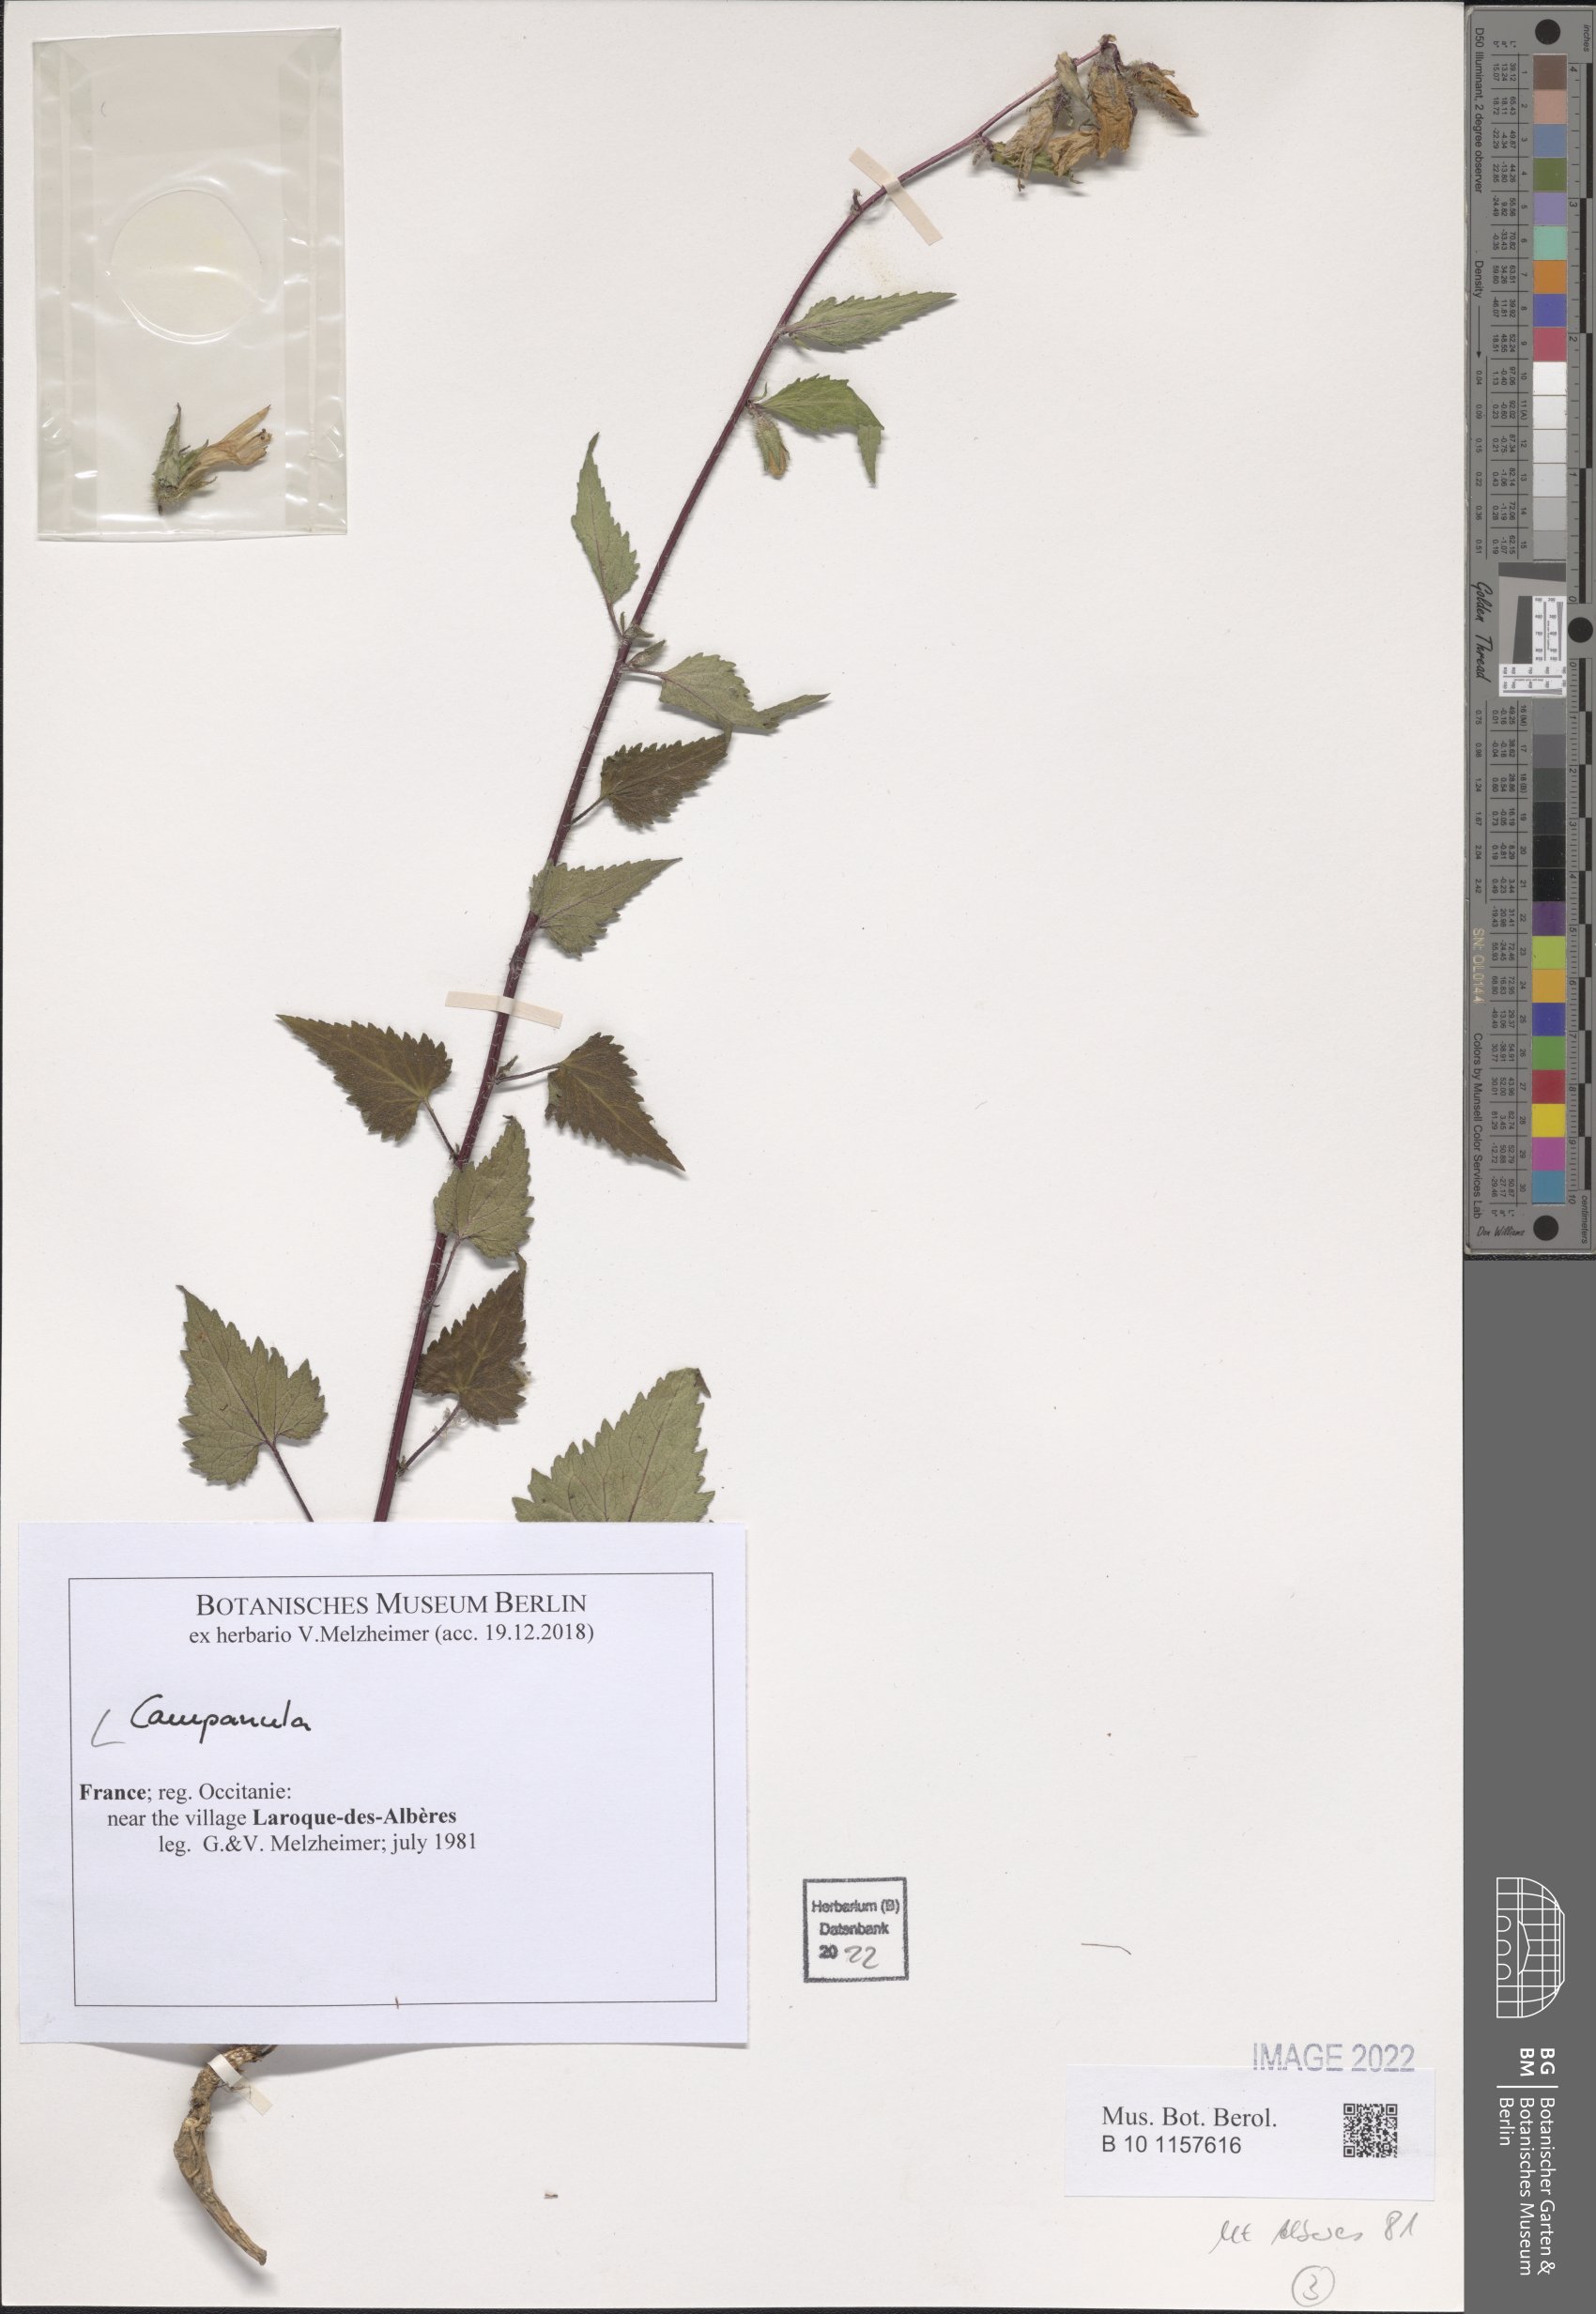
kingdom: Plantae
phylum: Tracheophyta
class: Magnoliopsida
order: Asterales
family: Campanulaceae
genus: Campanula
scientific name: Campanula
